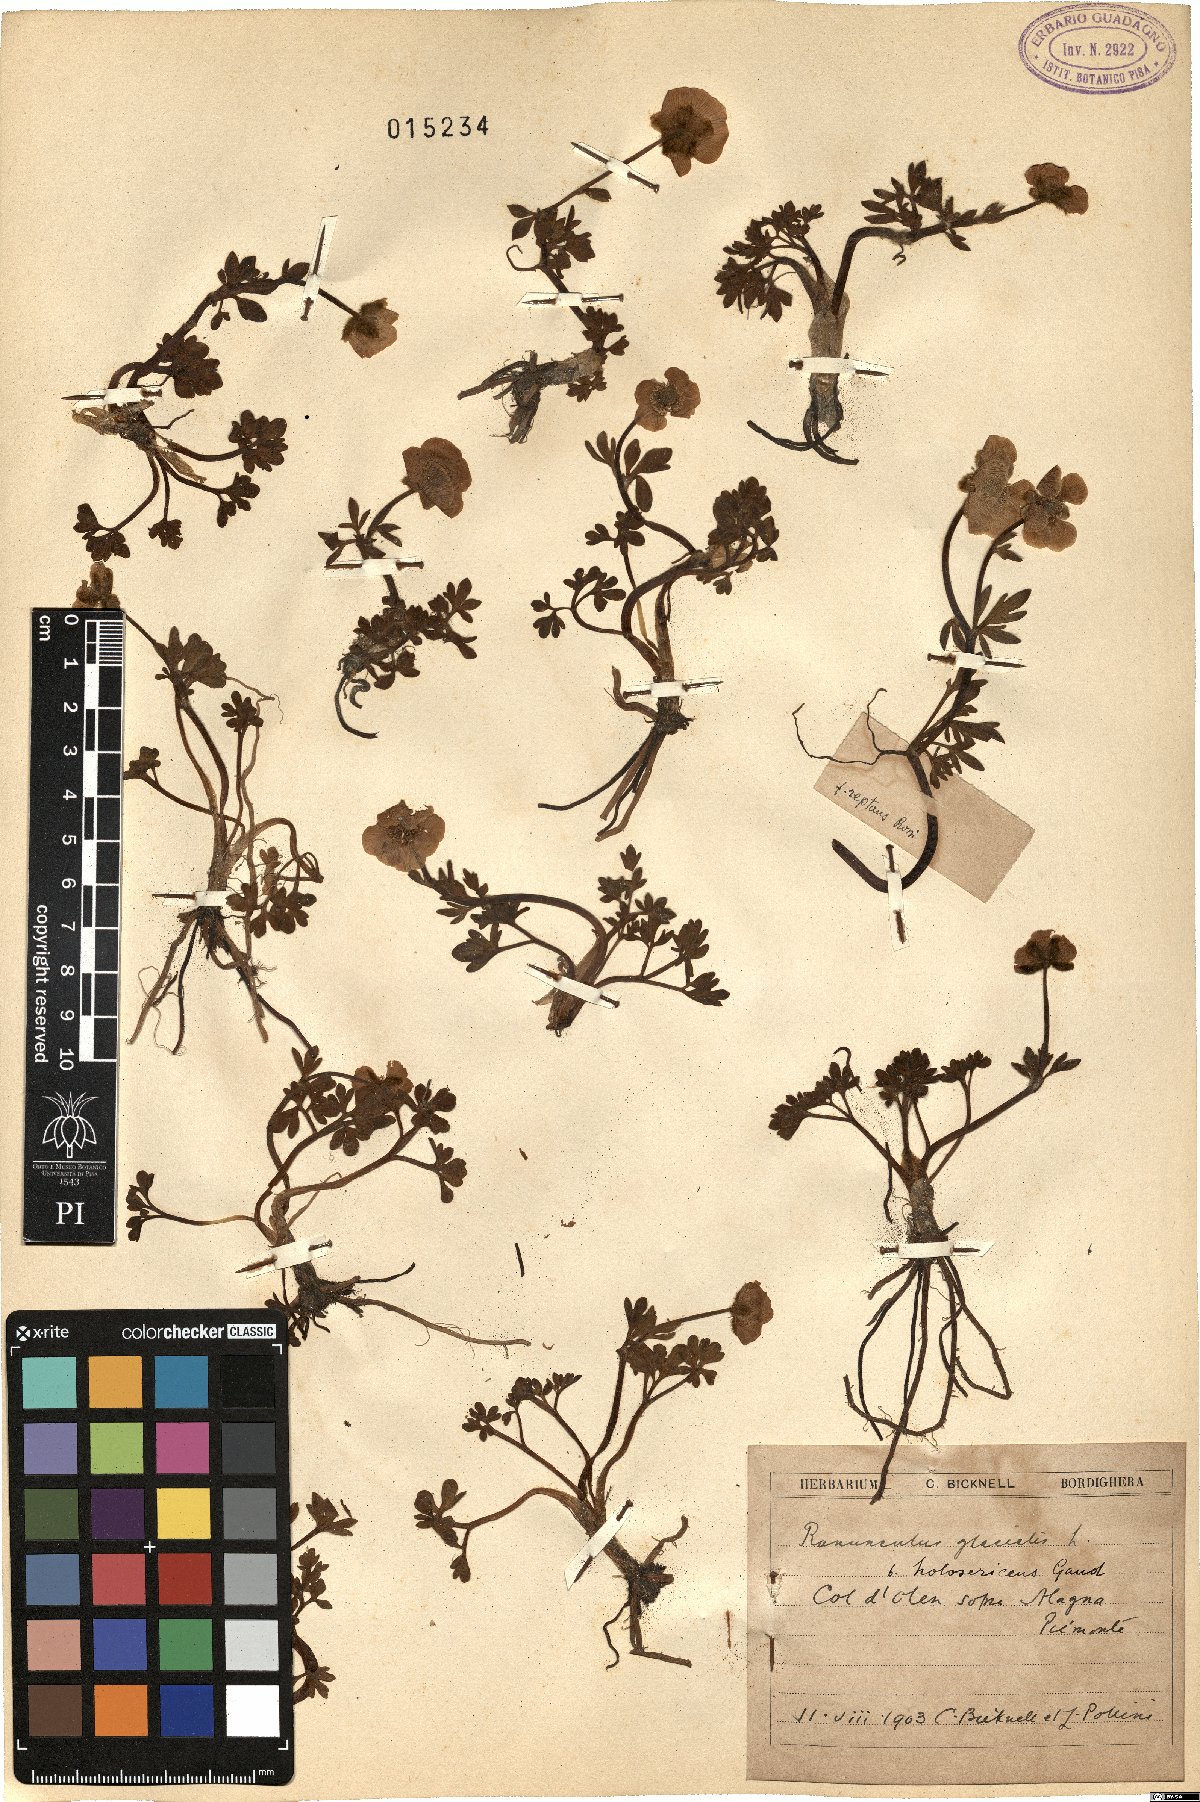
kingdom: Plantae
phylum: Tracheophyta
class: Magnoliopsida
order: Ranunculales
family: Ranunculaceae
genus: Ranunculus
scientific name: Ranunculus glacialis
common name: Glacier buttercup
